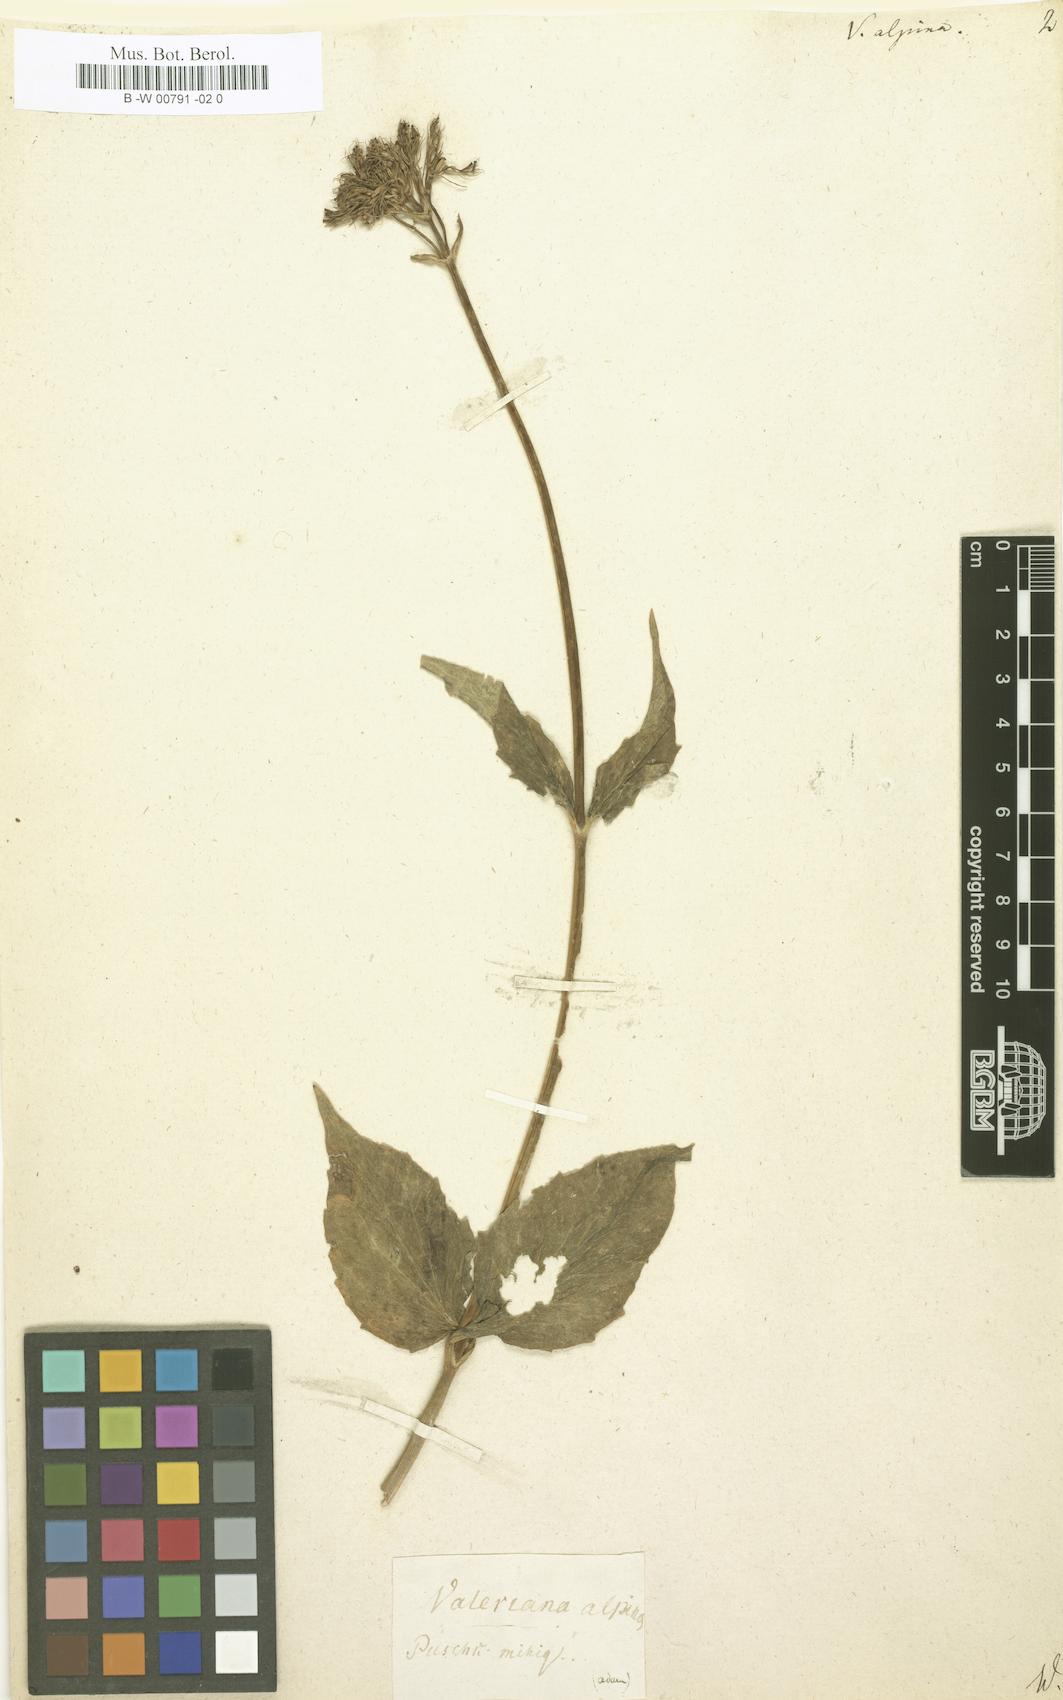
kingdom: Plantae
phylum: Tracheophyta
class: Magnoliopsida
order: Dipsacales
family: Caprifoliaceae
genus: Valeriana
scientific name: Valeriana
